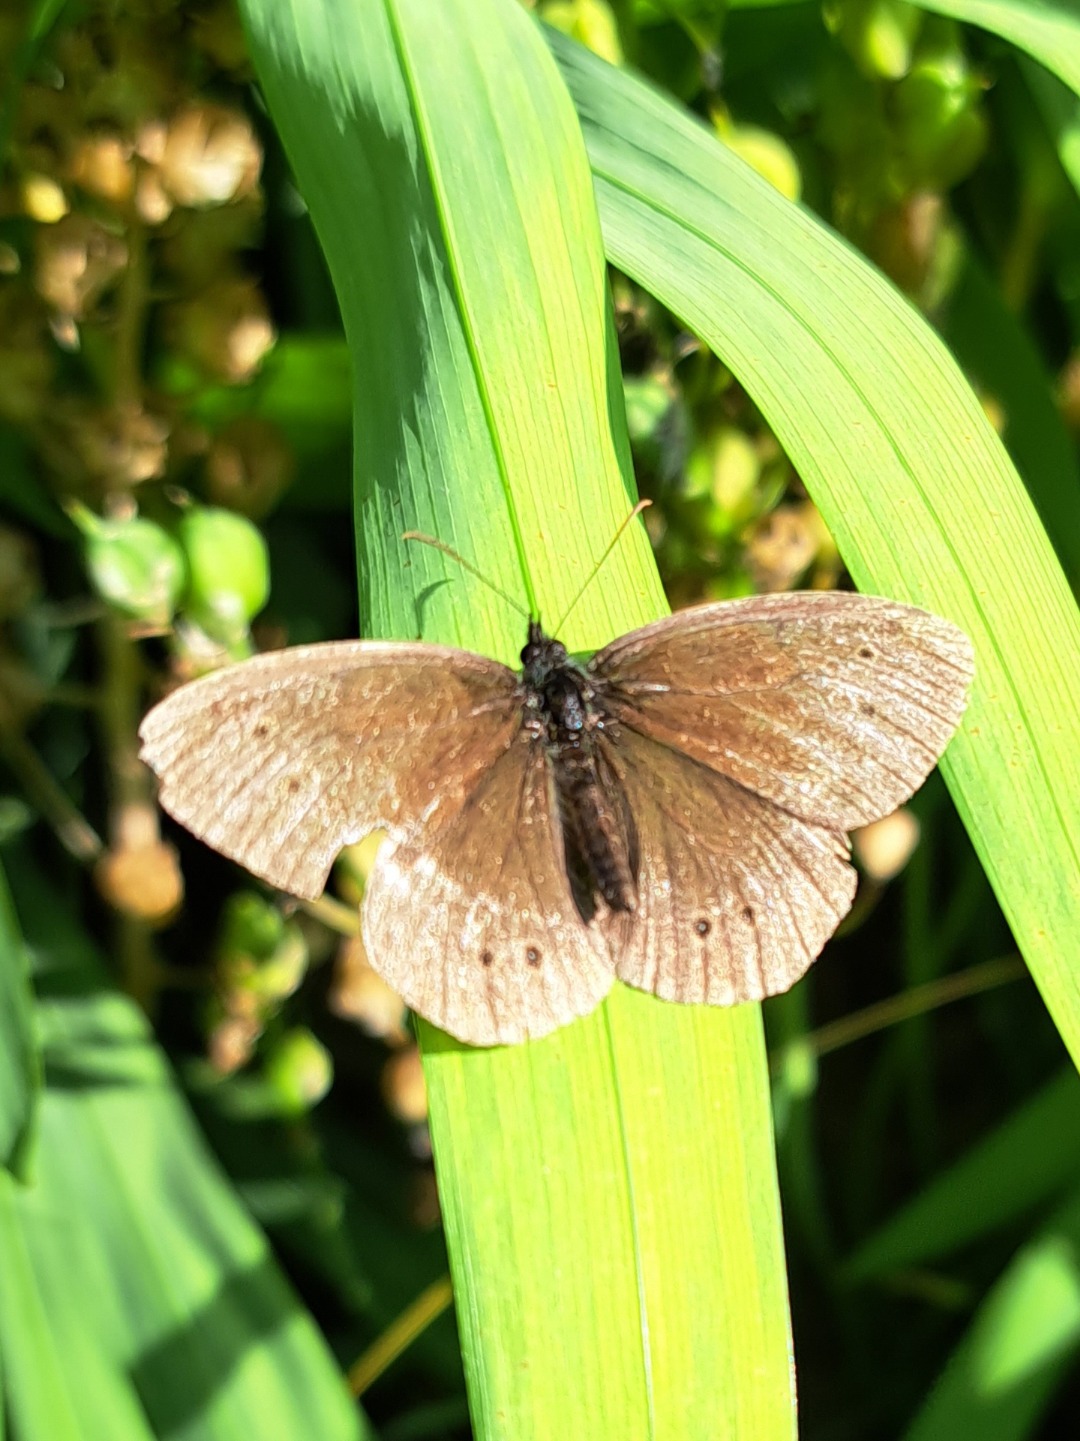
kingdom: Animalia
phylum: Arthropoda
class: Insecta
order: Lepidoptera
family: Nymphalidae
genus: Aphantopus
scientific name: Aphantopus hyperantus
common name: Engrandøje
